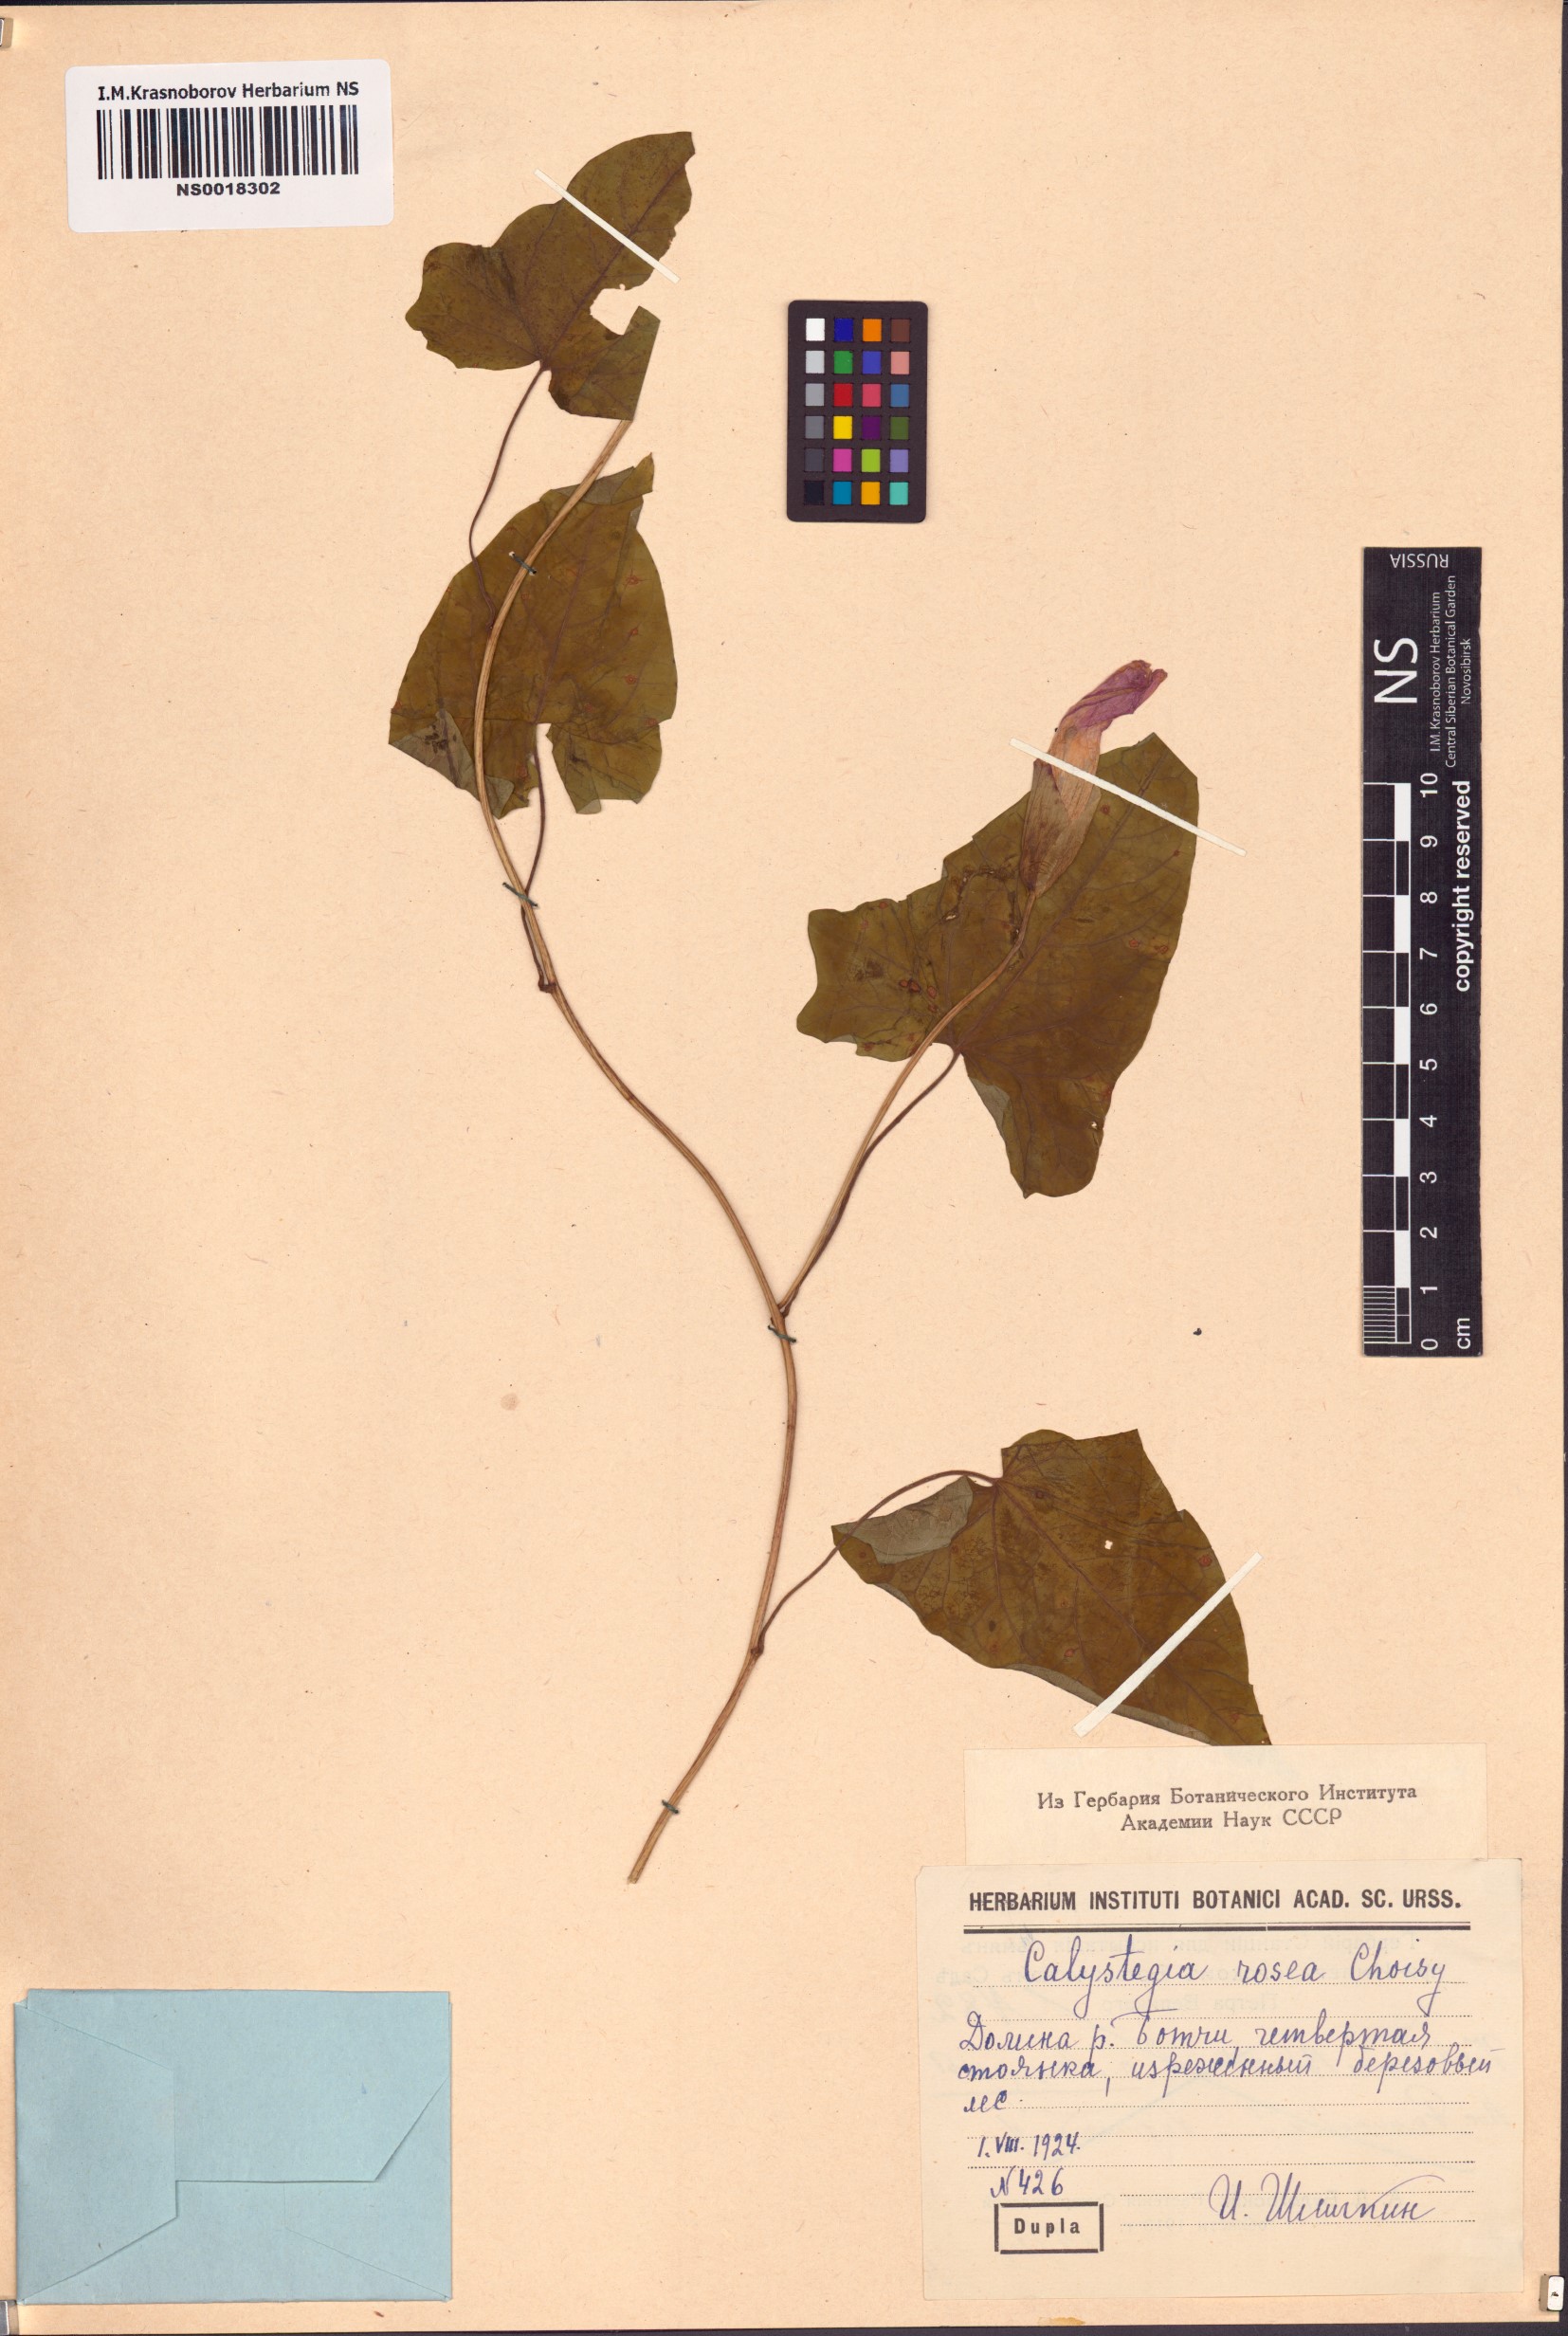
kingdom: Plantae
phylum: Tracheophyta
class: Magnoliopsida
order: Solanales
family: Convolvulaceae
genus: Calystegia
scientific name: Calystegia sepium
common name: Hedge bindweed
